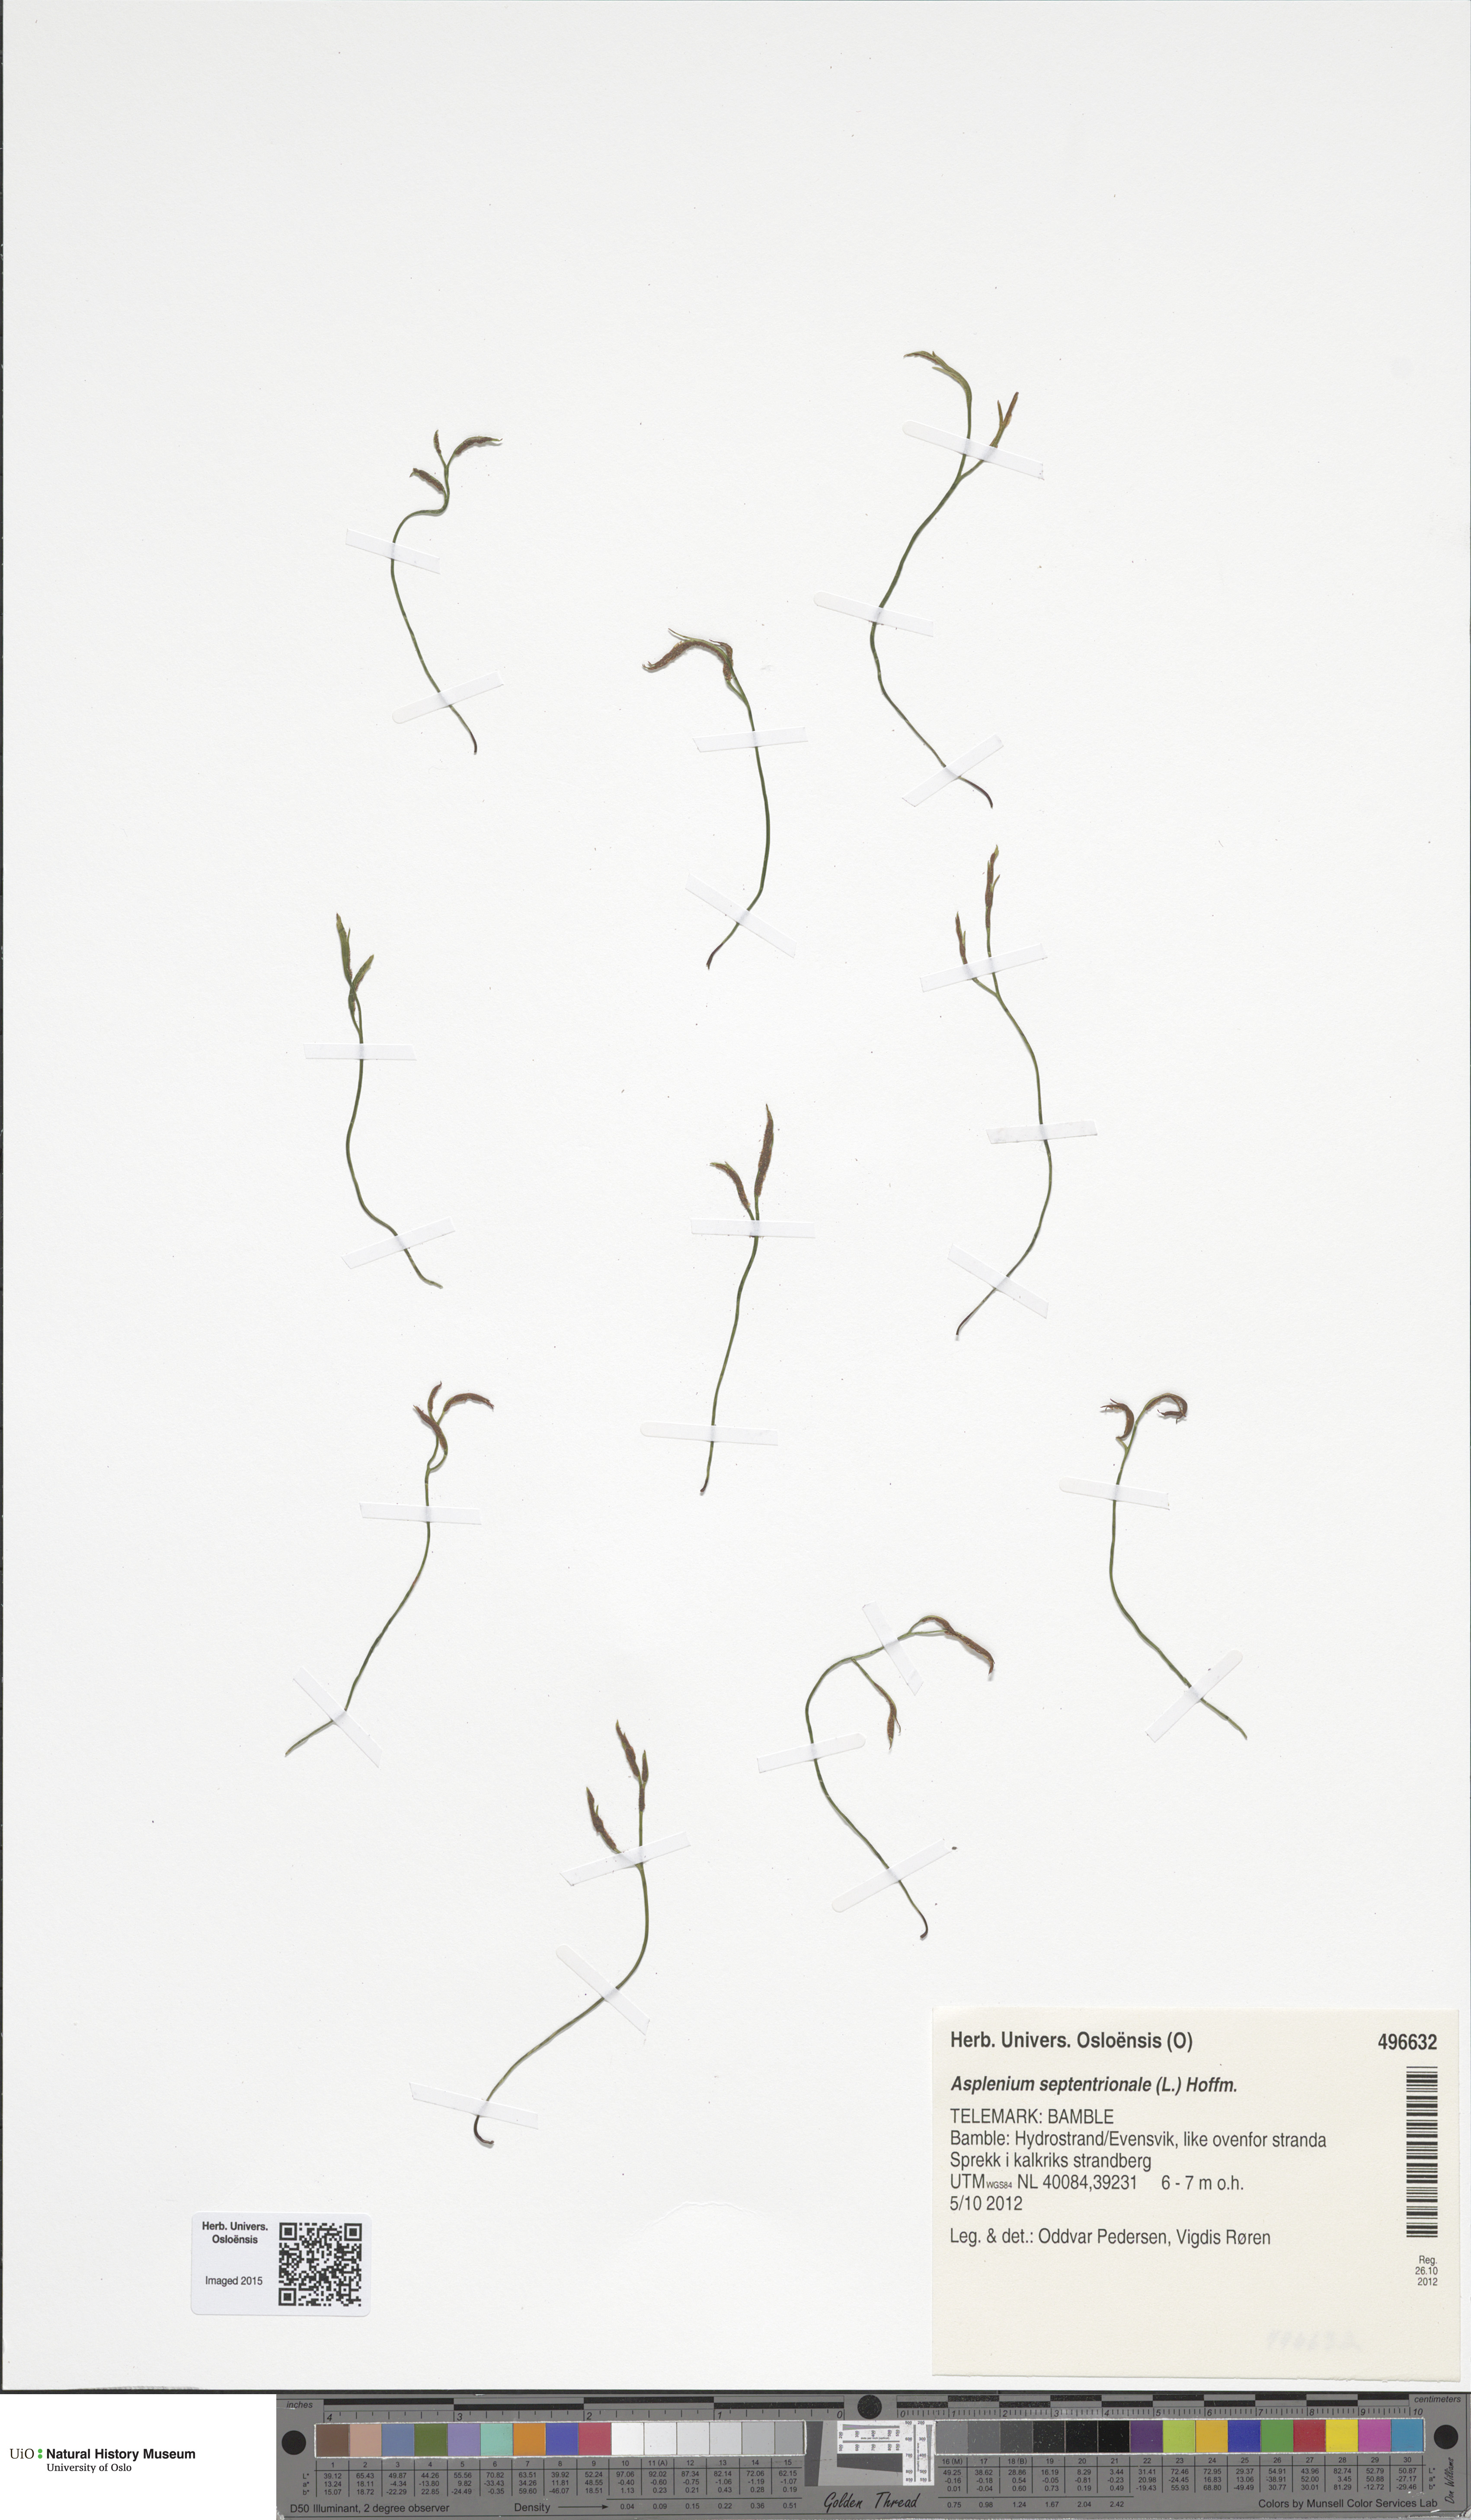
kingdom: Plantae
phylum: Tracheophyta
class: Polypodiopsida
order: Polypodiales
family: Aspleniaceae
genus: Asplenium
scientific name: Asplenium septentrionale
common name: Forked spleenwort
